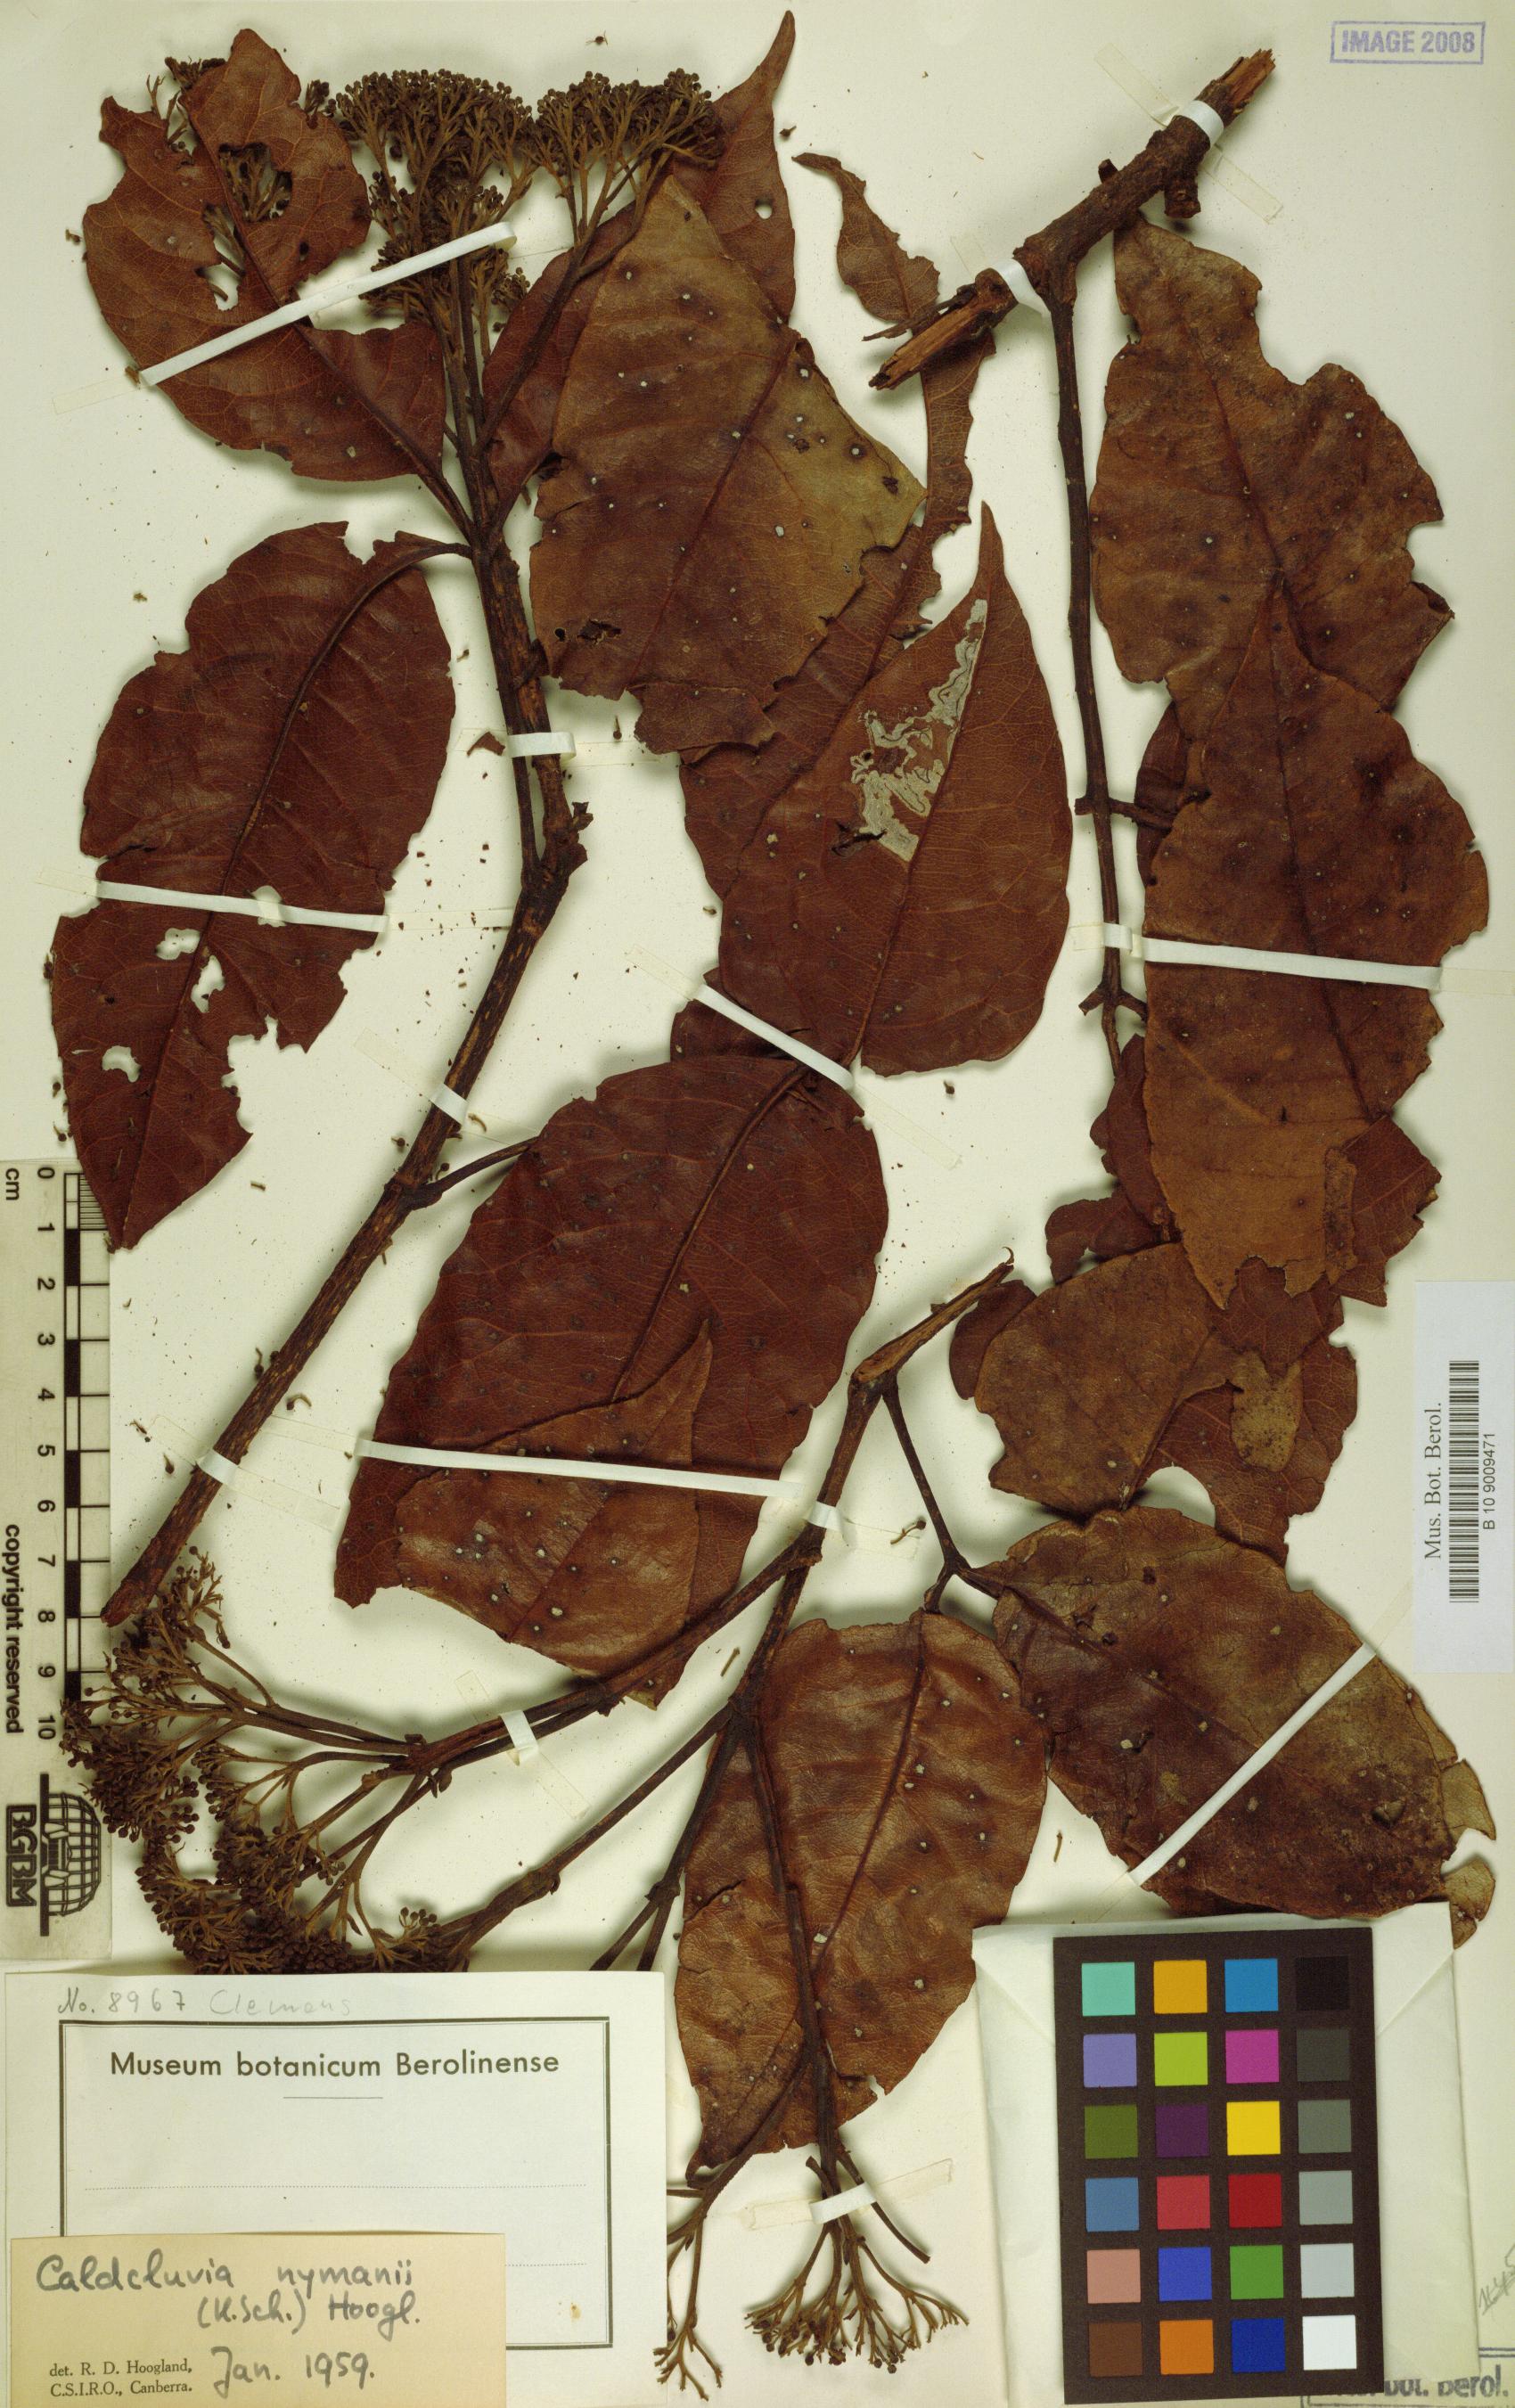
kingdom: Plantae
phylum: Tracheophyta
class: Magnoliopsida
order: Oxalidales
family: Cunoniaceae
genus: Opocunonia
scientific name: Opocunonia nymanii
